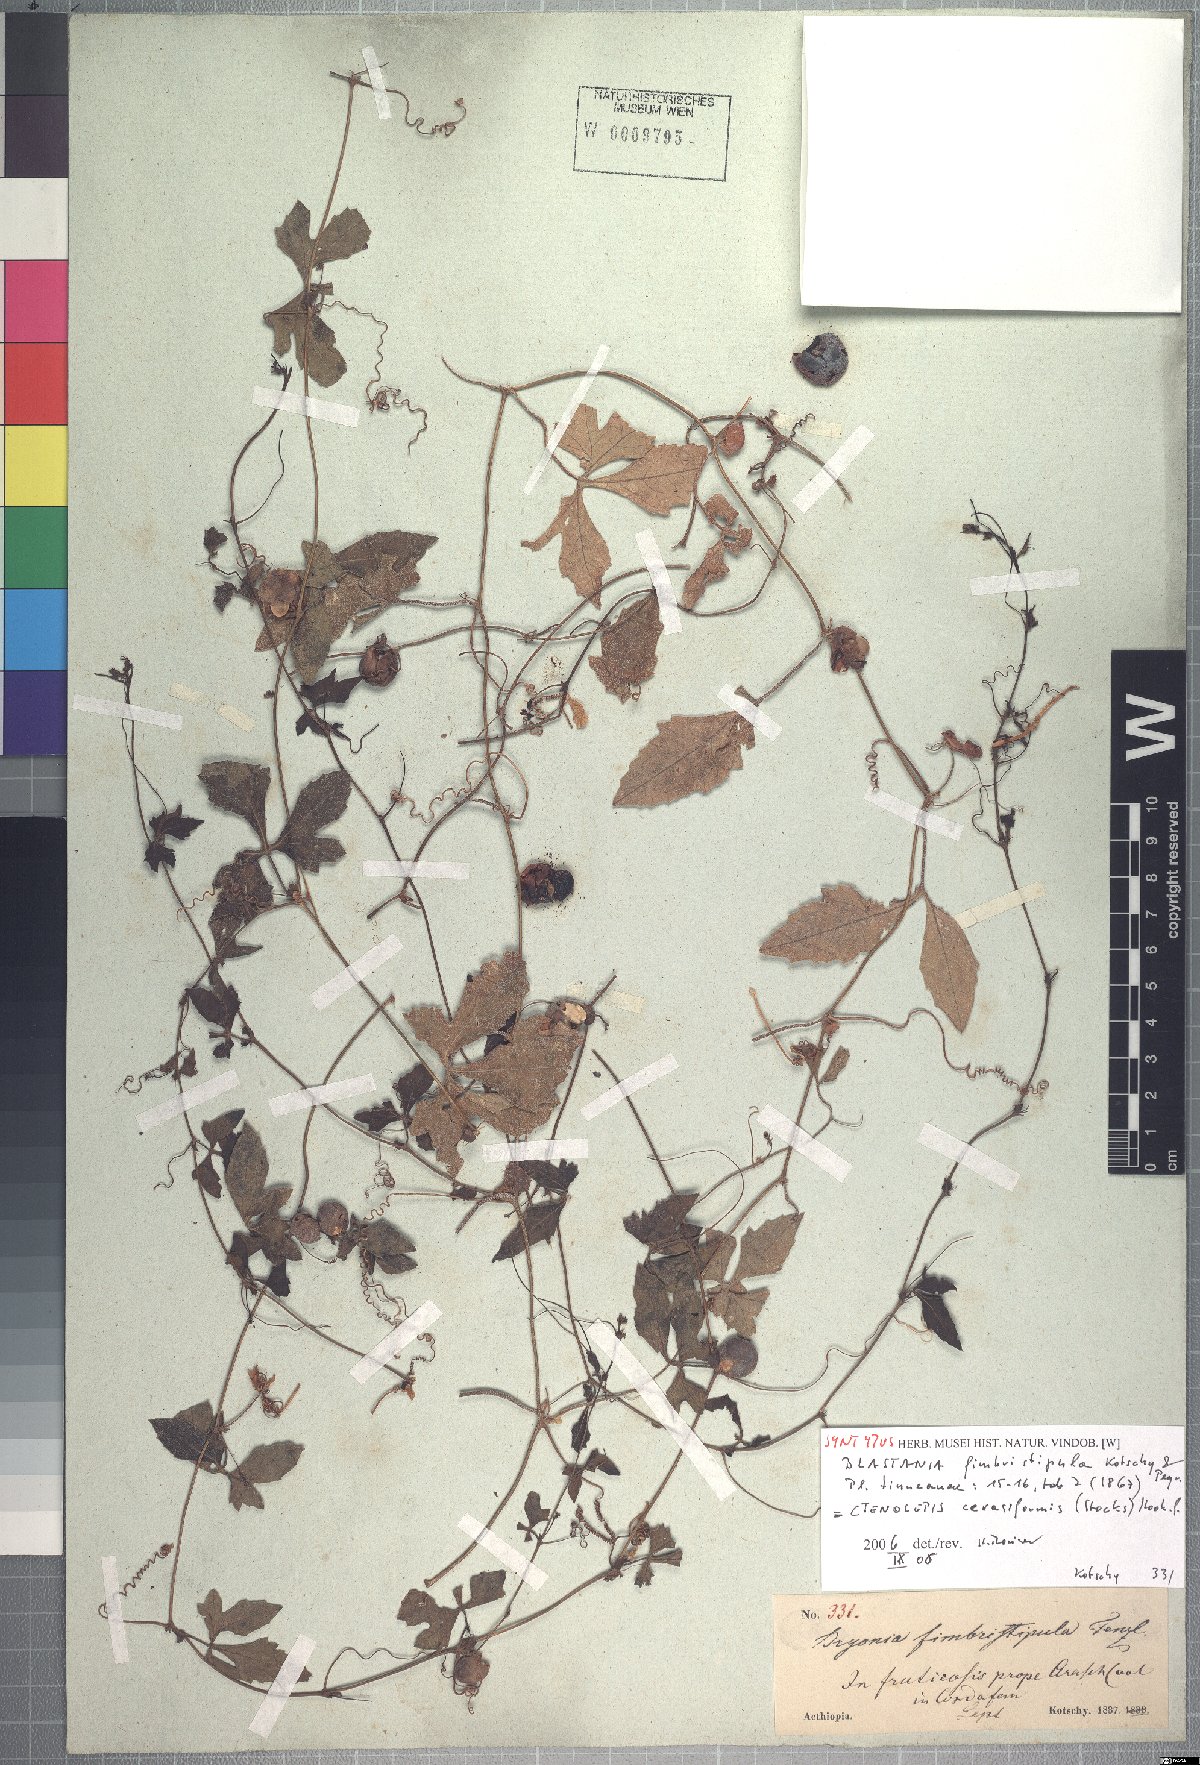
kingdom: Plantae
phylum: Tracheophyta
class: Magnoliopsida
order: Cucurbitales
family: Cucurbitaceae
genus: Blastania
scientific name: Blastania cerasiformis
